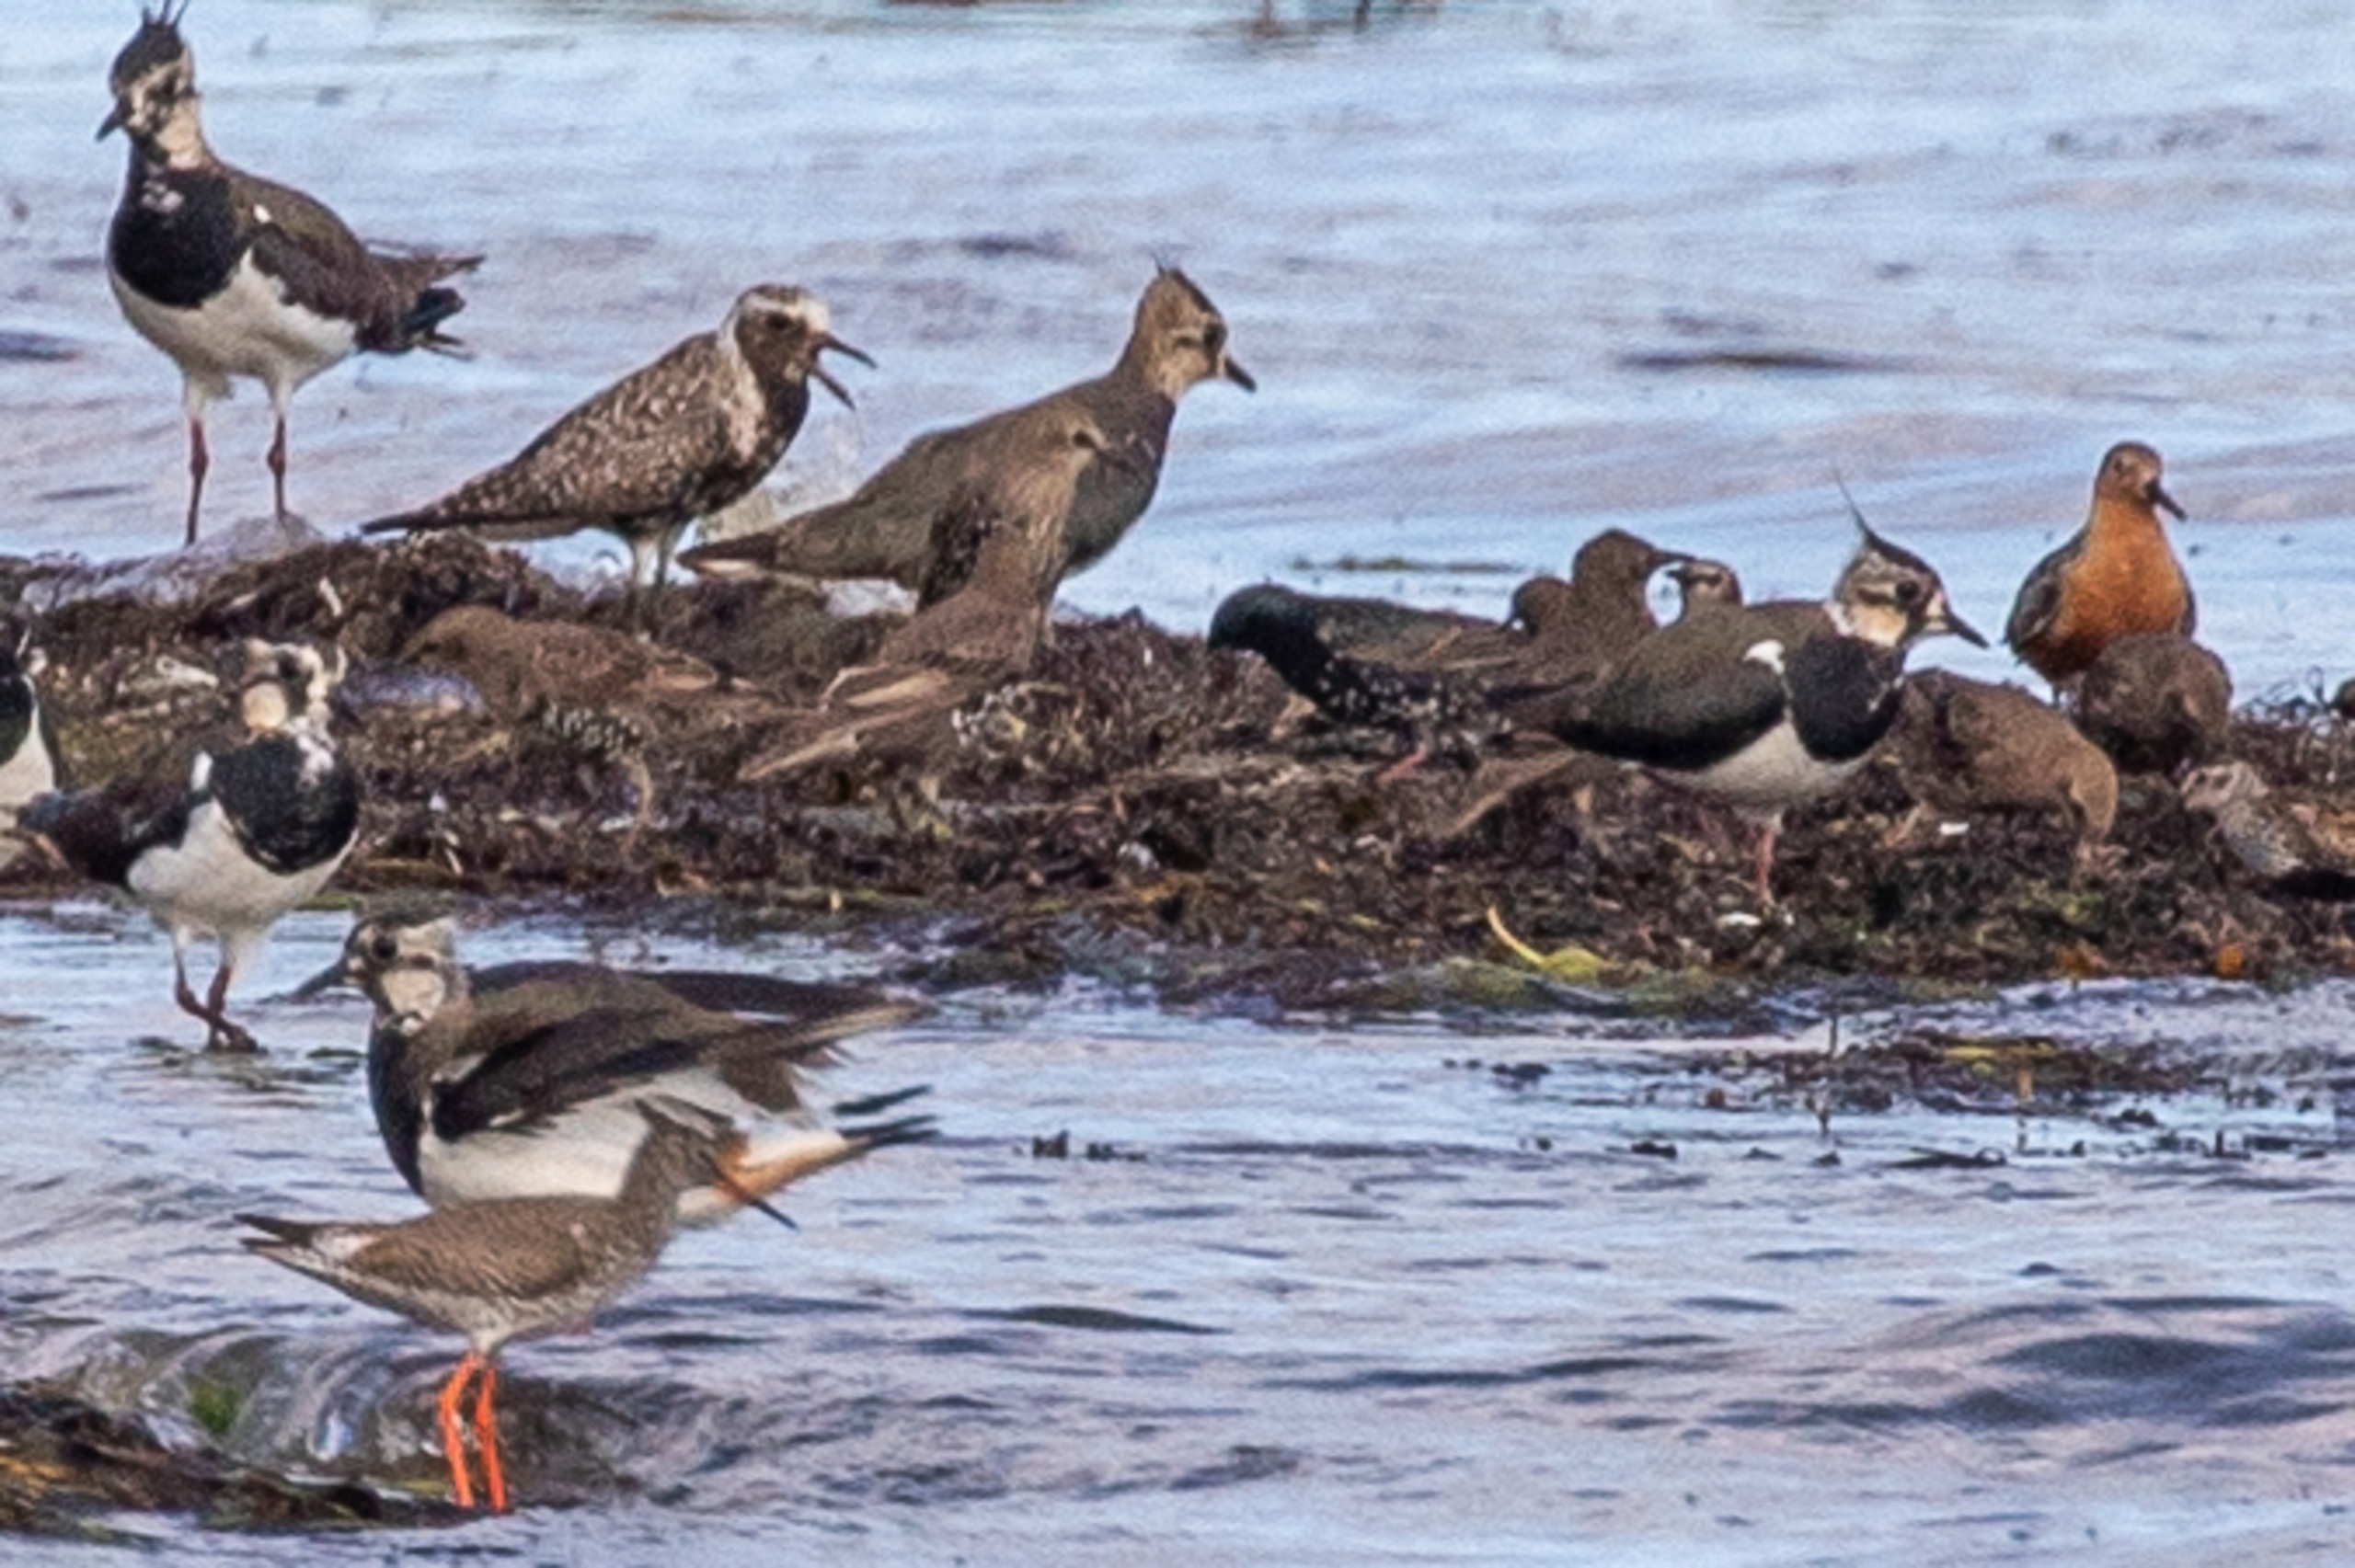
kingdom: Animalia
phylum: Chordata
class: Aves
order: Charadriiformes
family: Charadriidae
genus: Pluvialis
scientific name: Pluvialis apricaria
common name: Hjejle
